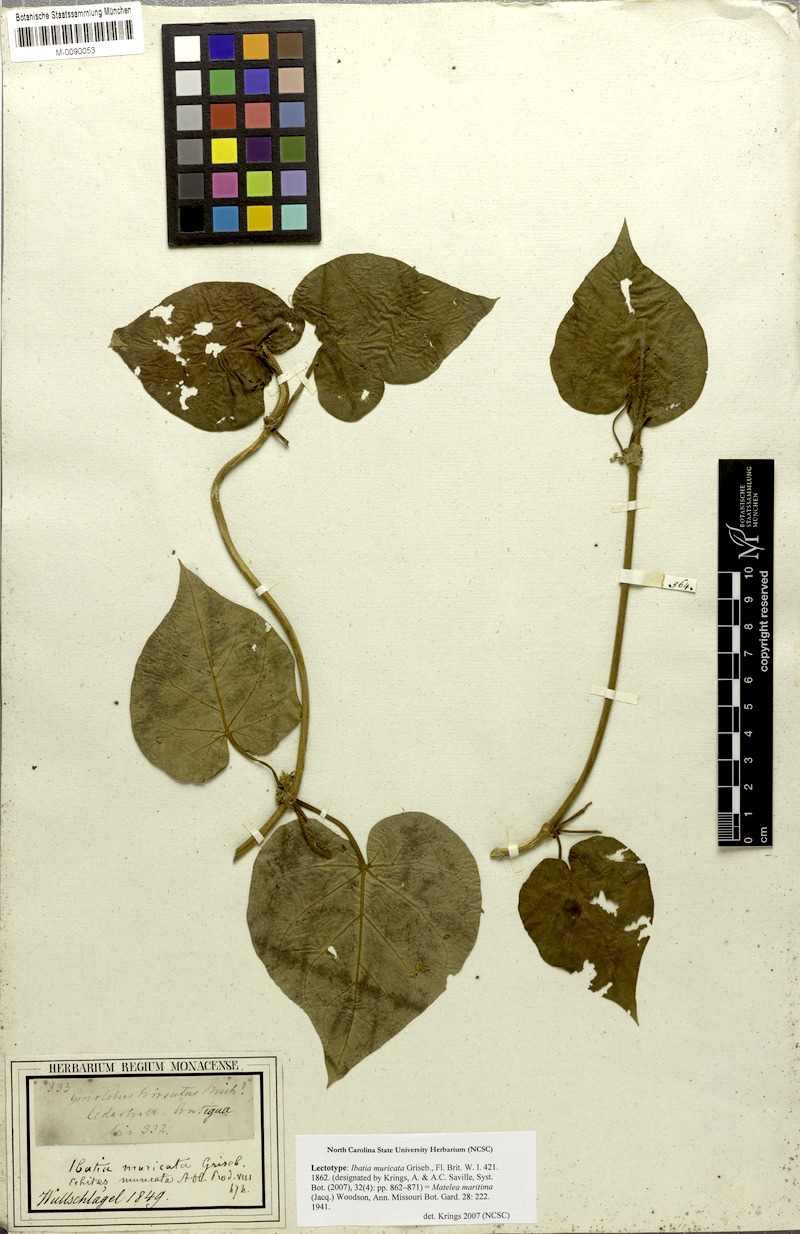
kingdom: Plantae
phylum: Tracheophyta
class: Magnoliopsida
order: Gentianales
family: Apocynaceae
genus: Ibatia
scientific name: Ibatia maritima
